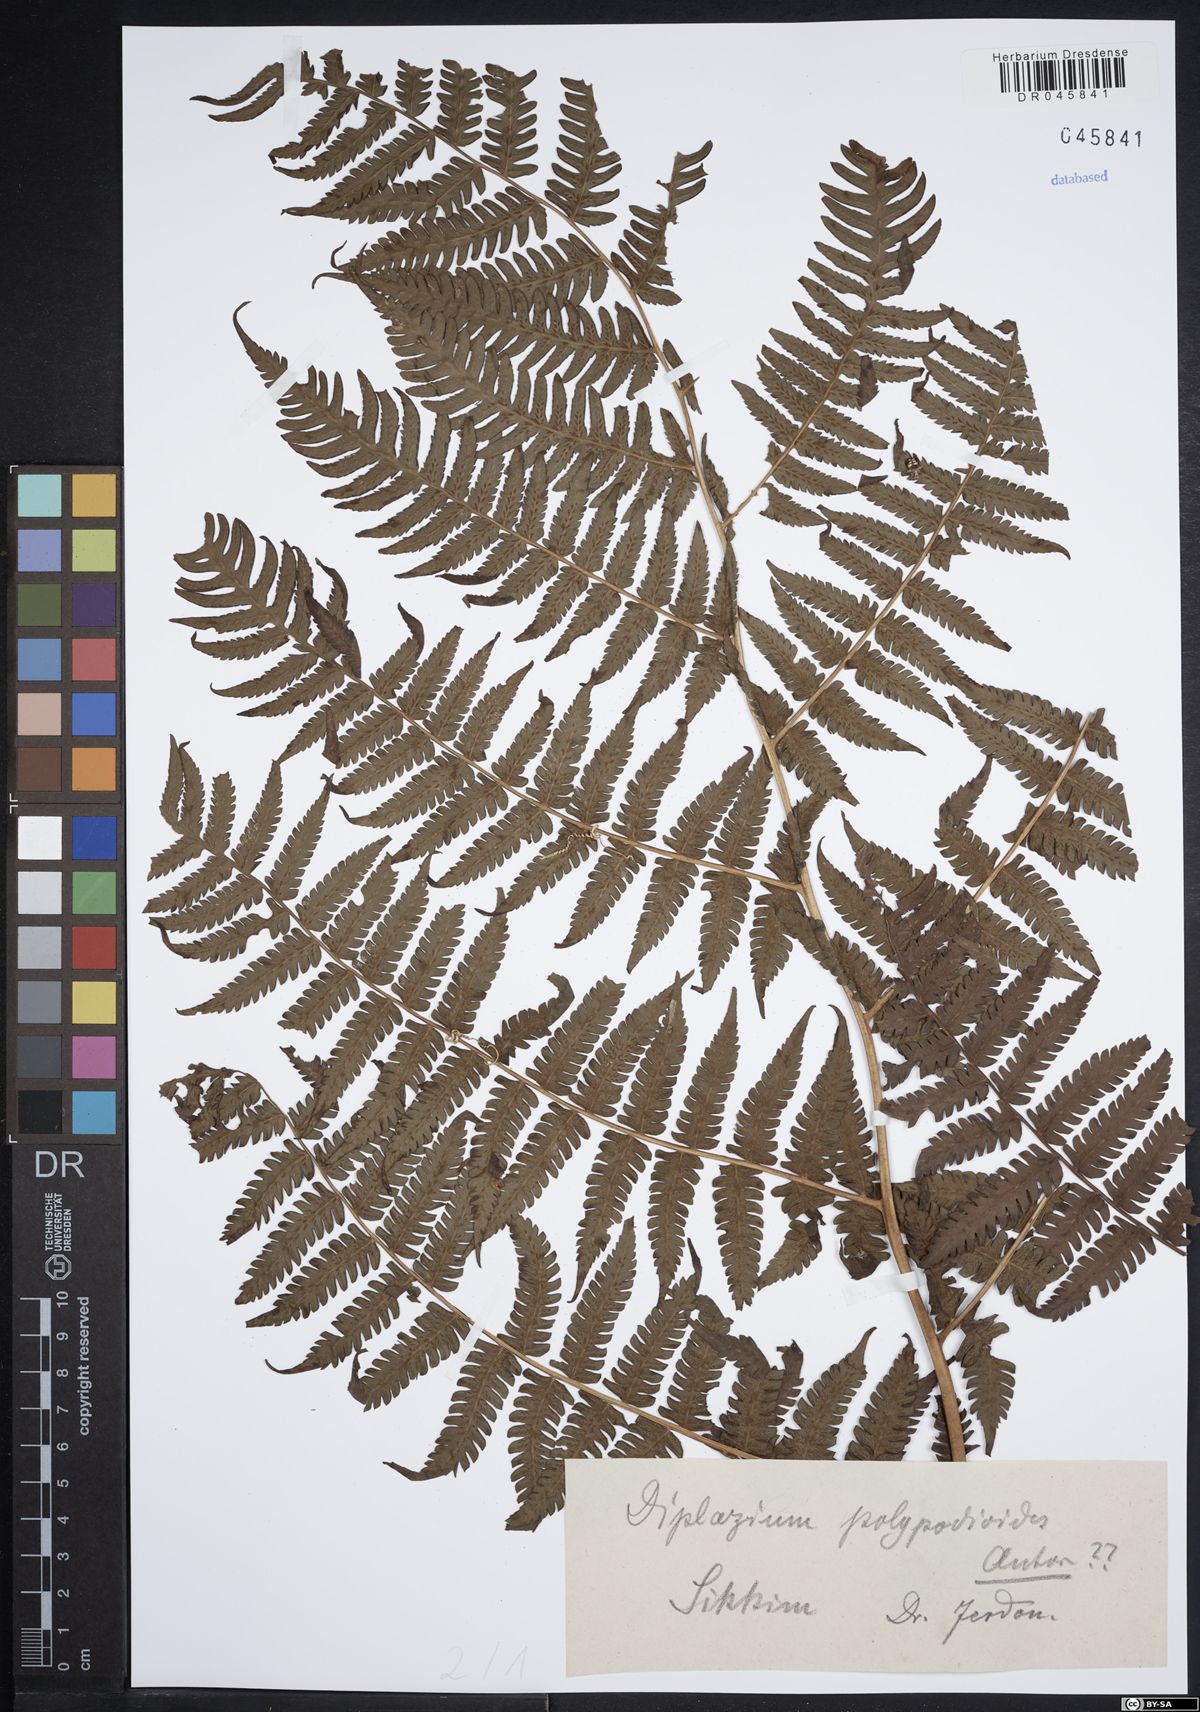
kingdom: Plantae
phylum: Tracheophyta
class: Polypodiopsida
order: Polypodiales
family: Athyriaceae
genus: Diplazium
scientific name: Diplazium polypodioides
